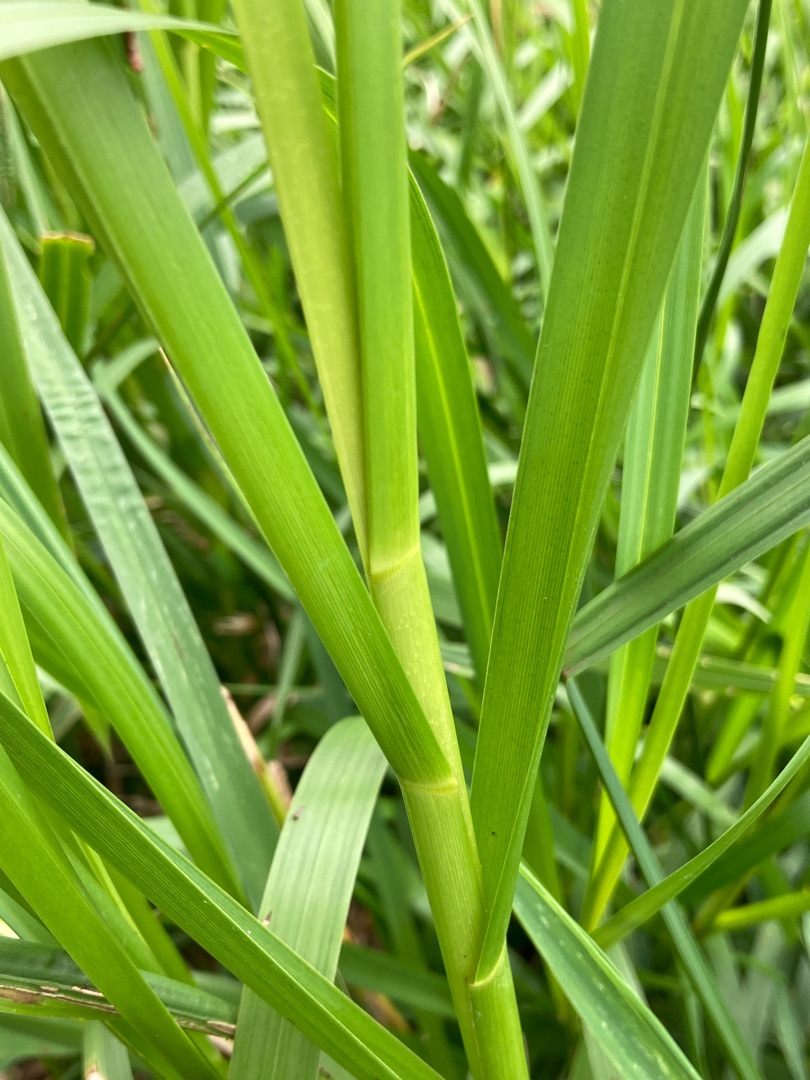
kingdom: Plantae
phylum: Tracheophyta
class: Liliopsida
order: Poales
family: Poaceae
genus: Glyceria
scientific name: Glyceria maxima
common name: Høj sødgræs
